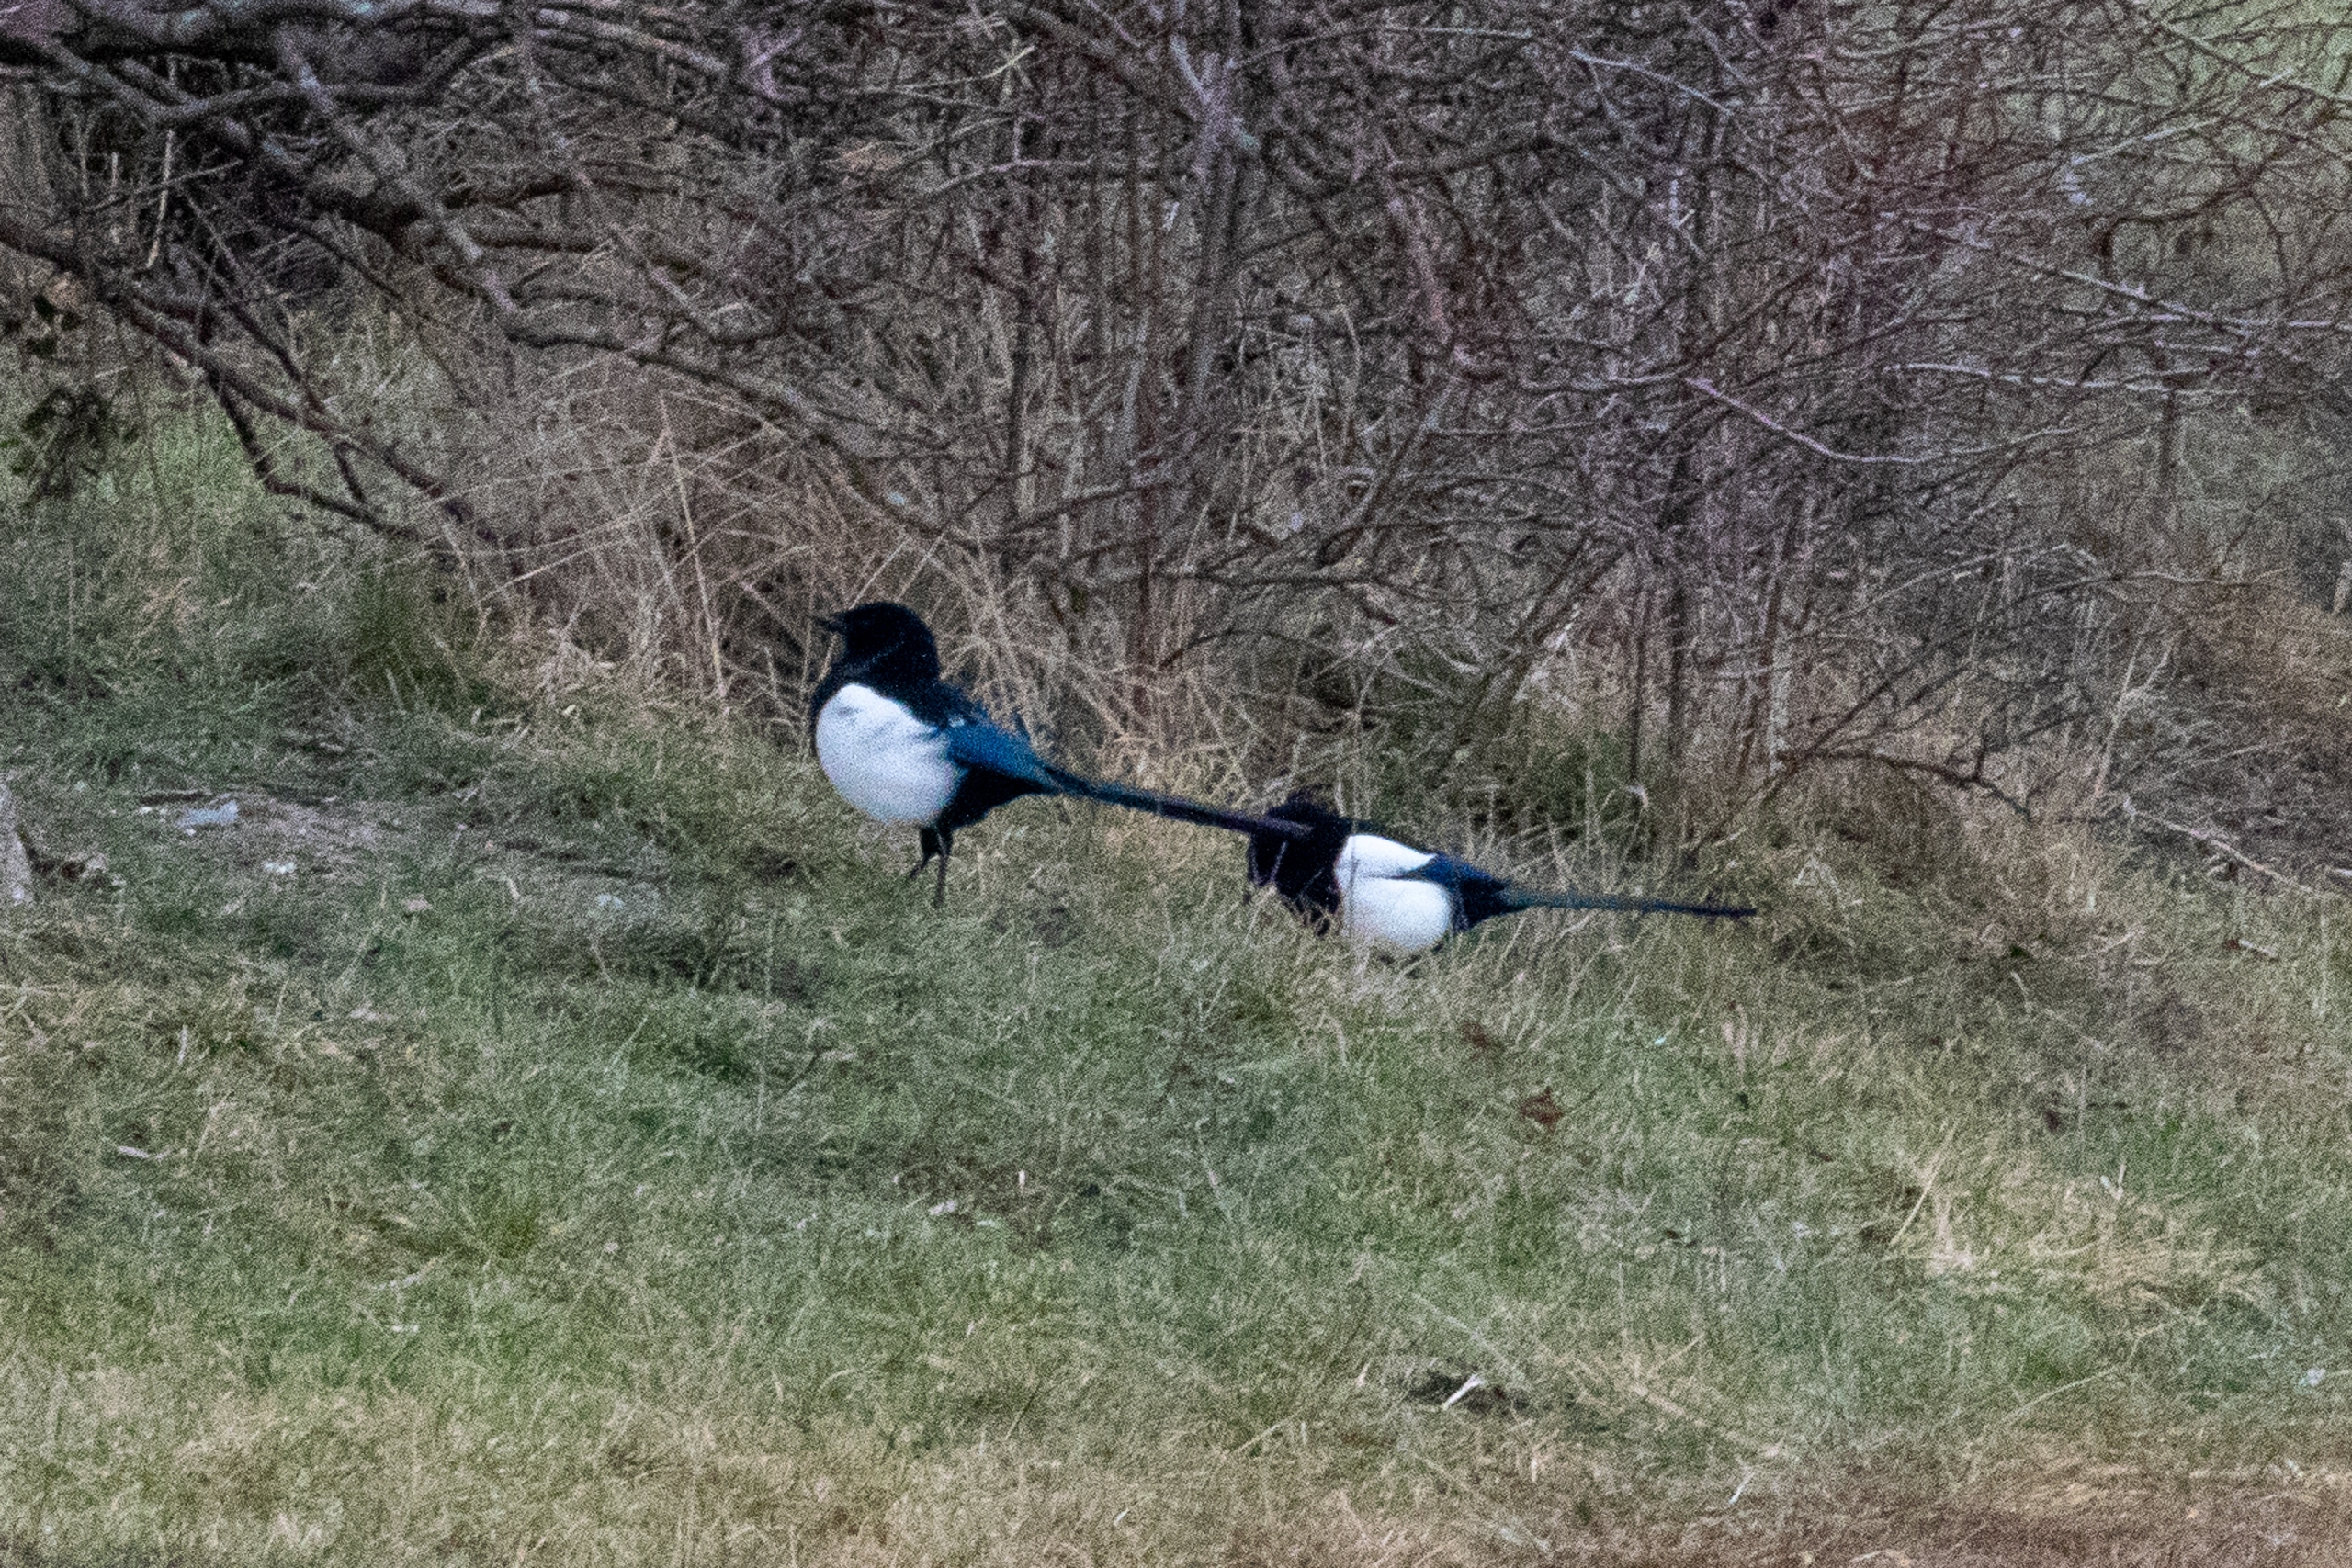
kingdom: Animalia
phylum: Chordata
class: Aves
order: Passeriformes
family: Corvidae
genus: Pica
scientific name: Pica pica
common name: Husskade
